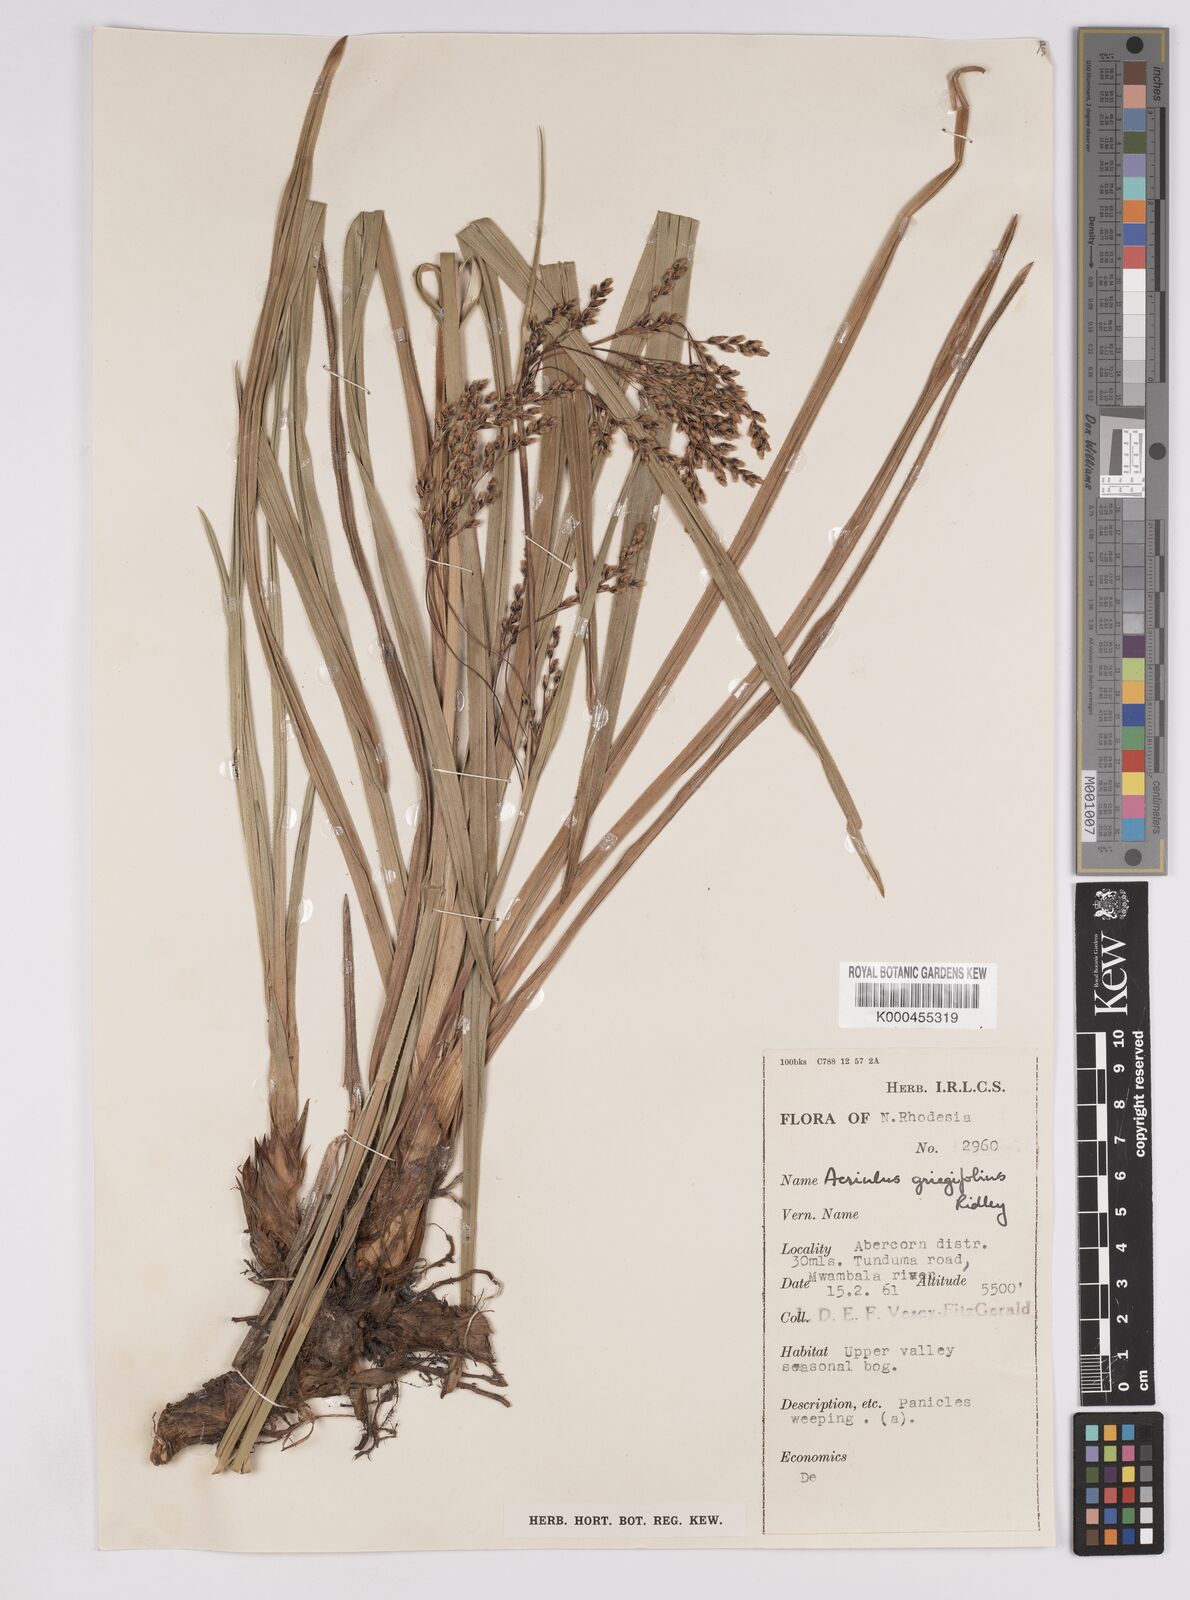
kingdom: Plantae
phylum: Tracheophyta
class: Liliopsida
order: Poales
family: Cyperaceae
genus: Scleria
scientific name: Scleria greigiifolia
